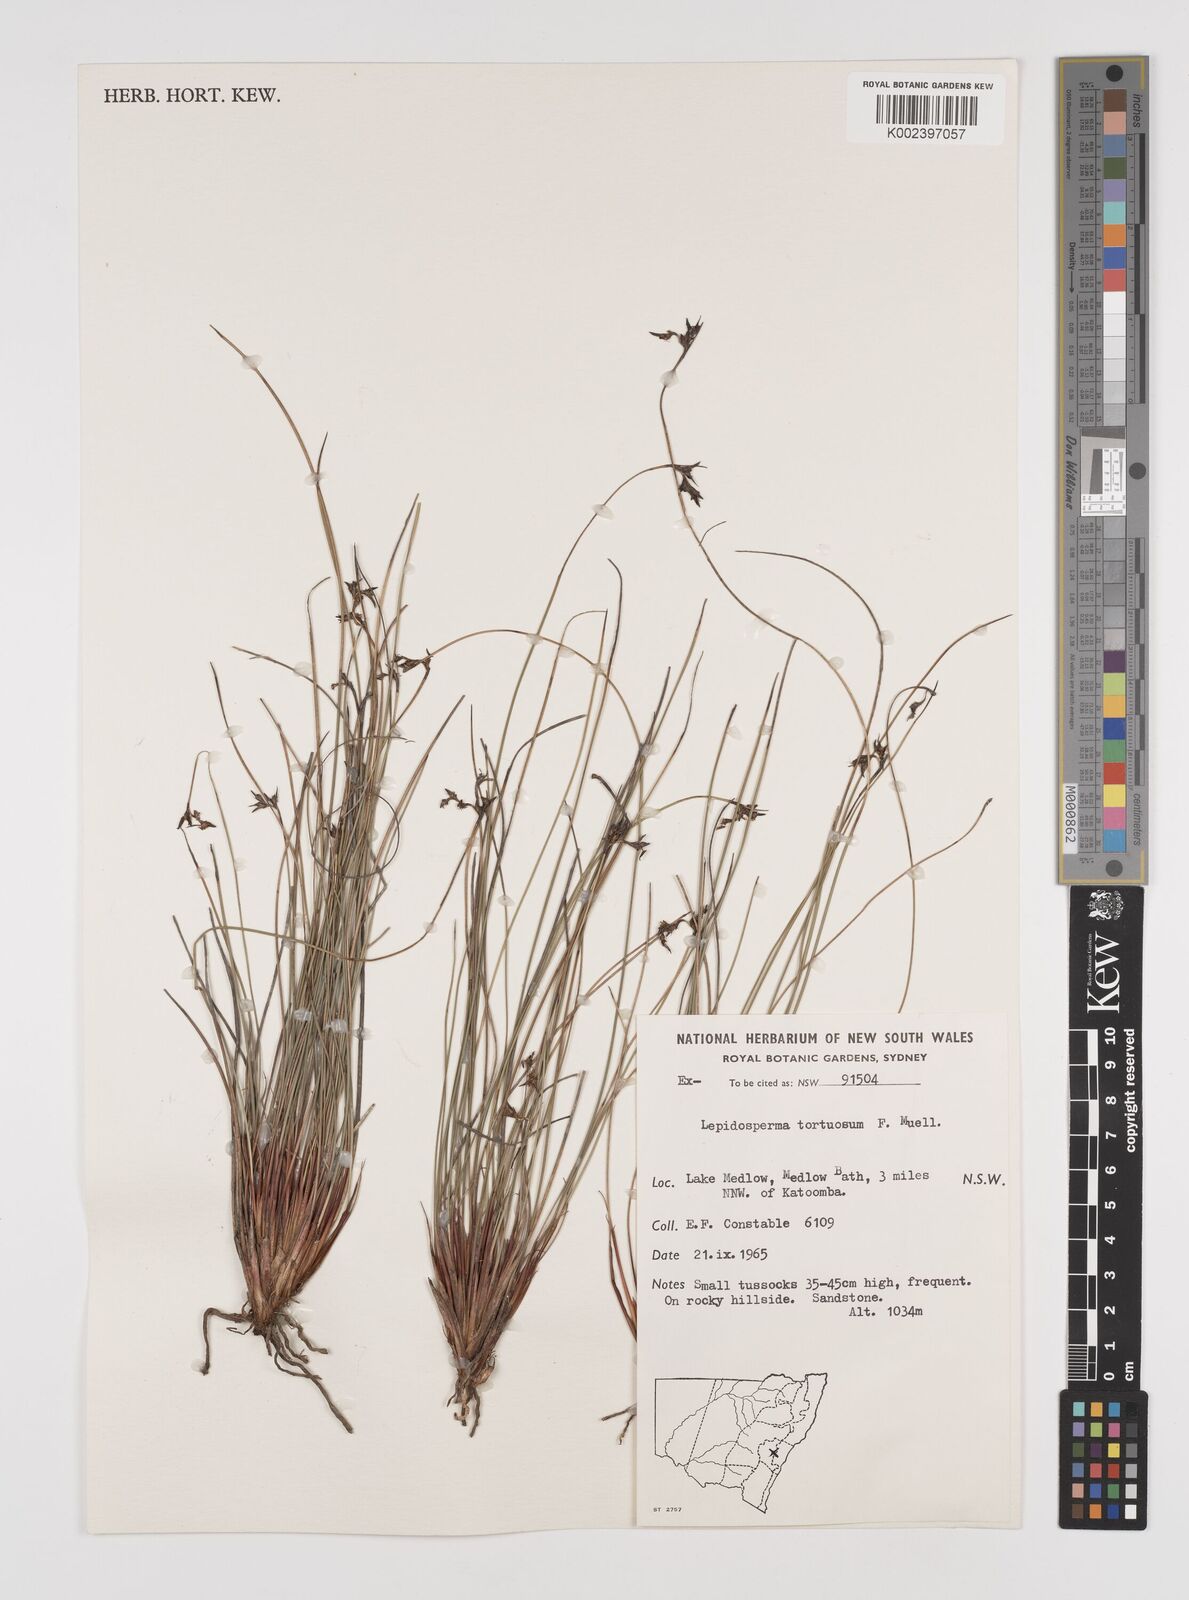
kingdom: Plantae
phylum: Tracheophyta
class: Liliopsida
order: Poales
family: Cyperaceae
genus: Lepidosperma
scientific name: Lepidosperma tortuosum
